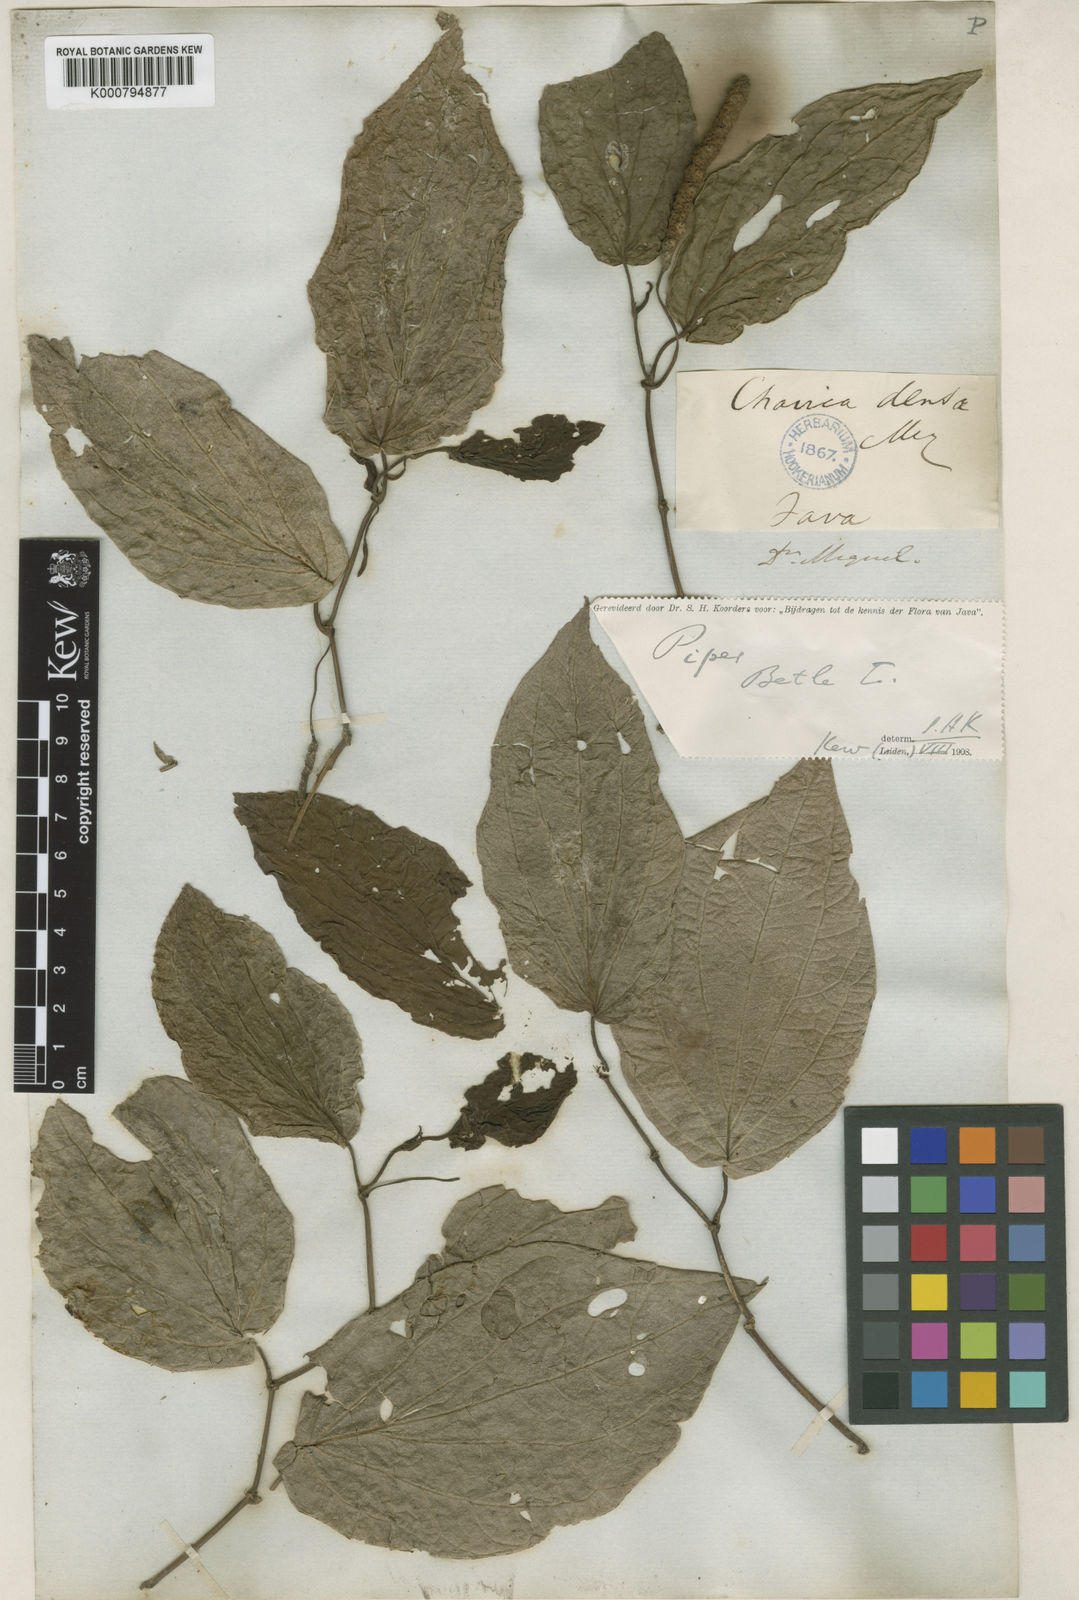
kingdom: Plantae
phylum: Tracheophyta
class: Magnoliopsida
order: Piperales
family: Piperaceae
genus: Piper
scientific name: Piper betle
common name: Betel pepper
